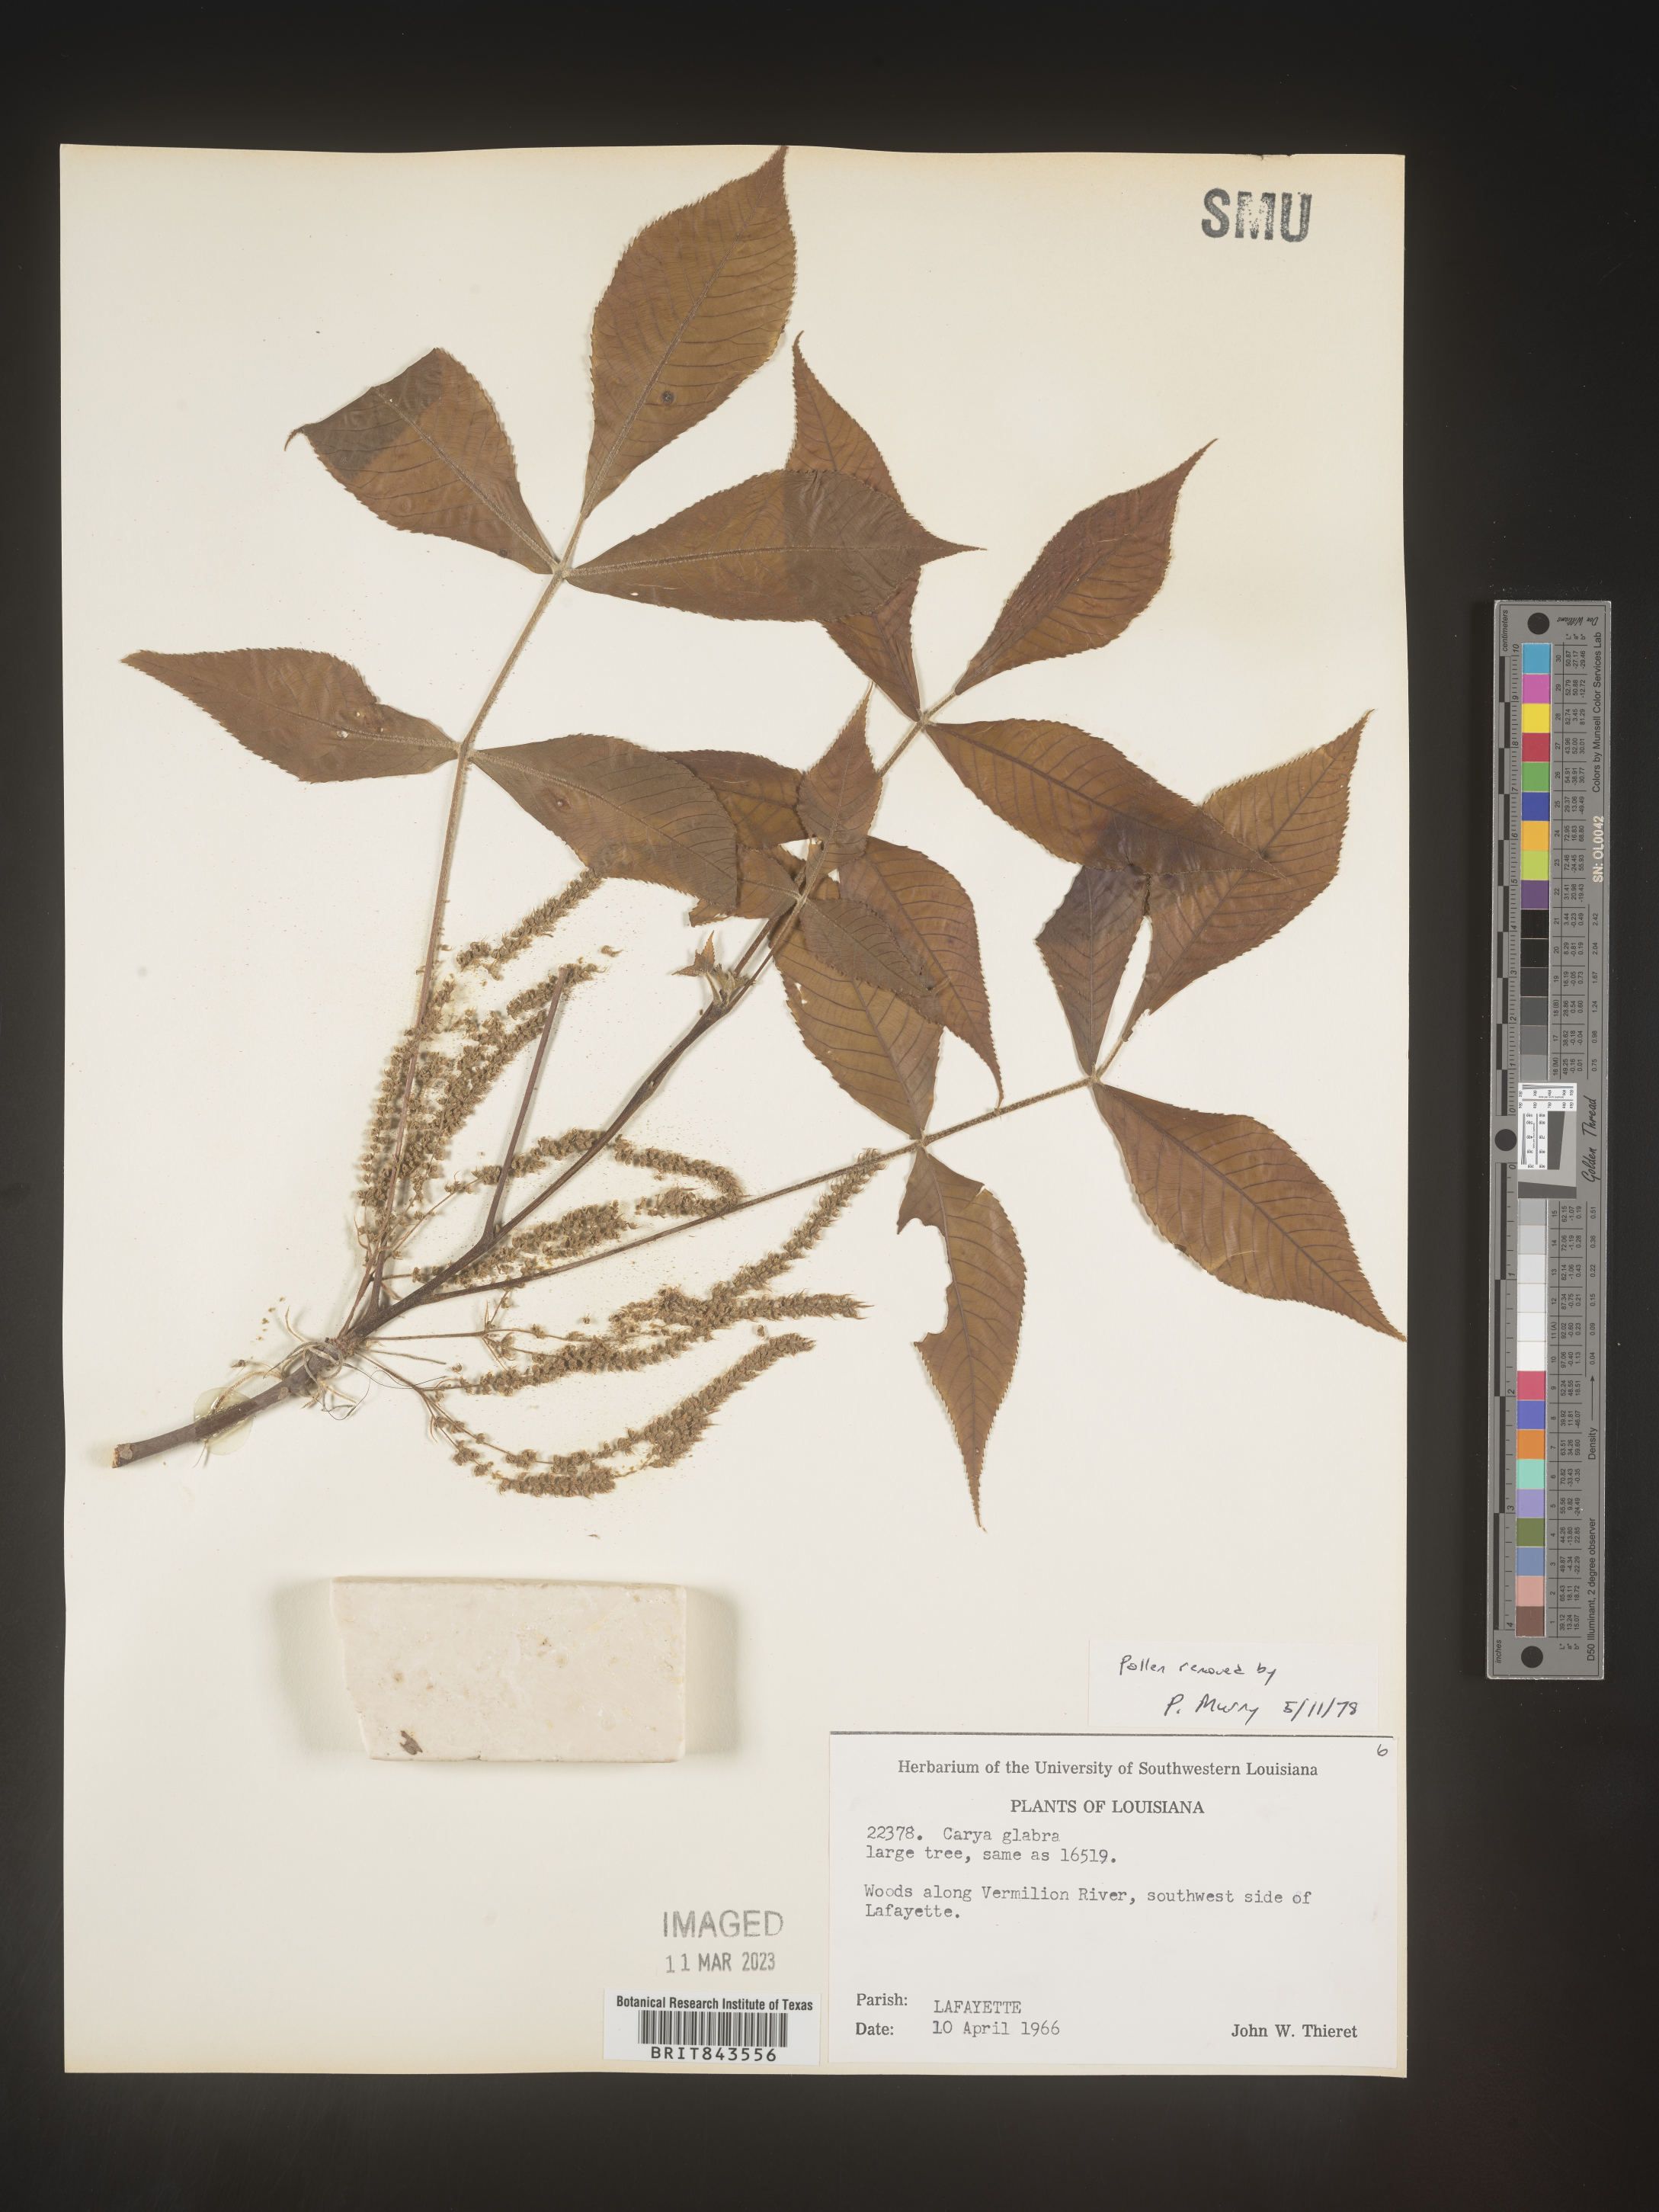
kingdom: Plantae
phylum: Tracheophyta
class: Magnoliopsida
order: Fagales
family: Juglandaceae
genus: Carya
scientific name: Carya glabra
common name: Pignut hickory
